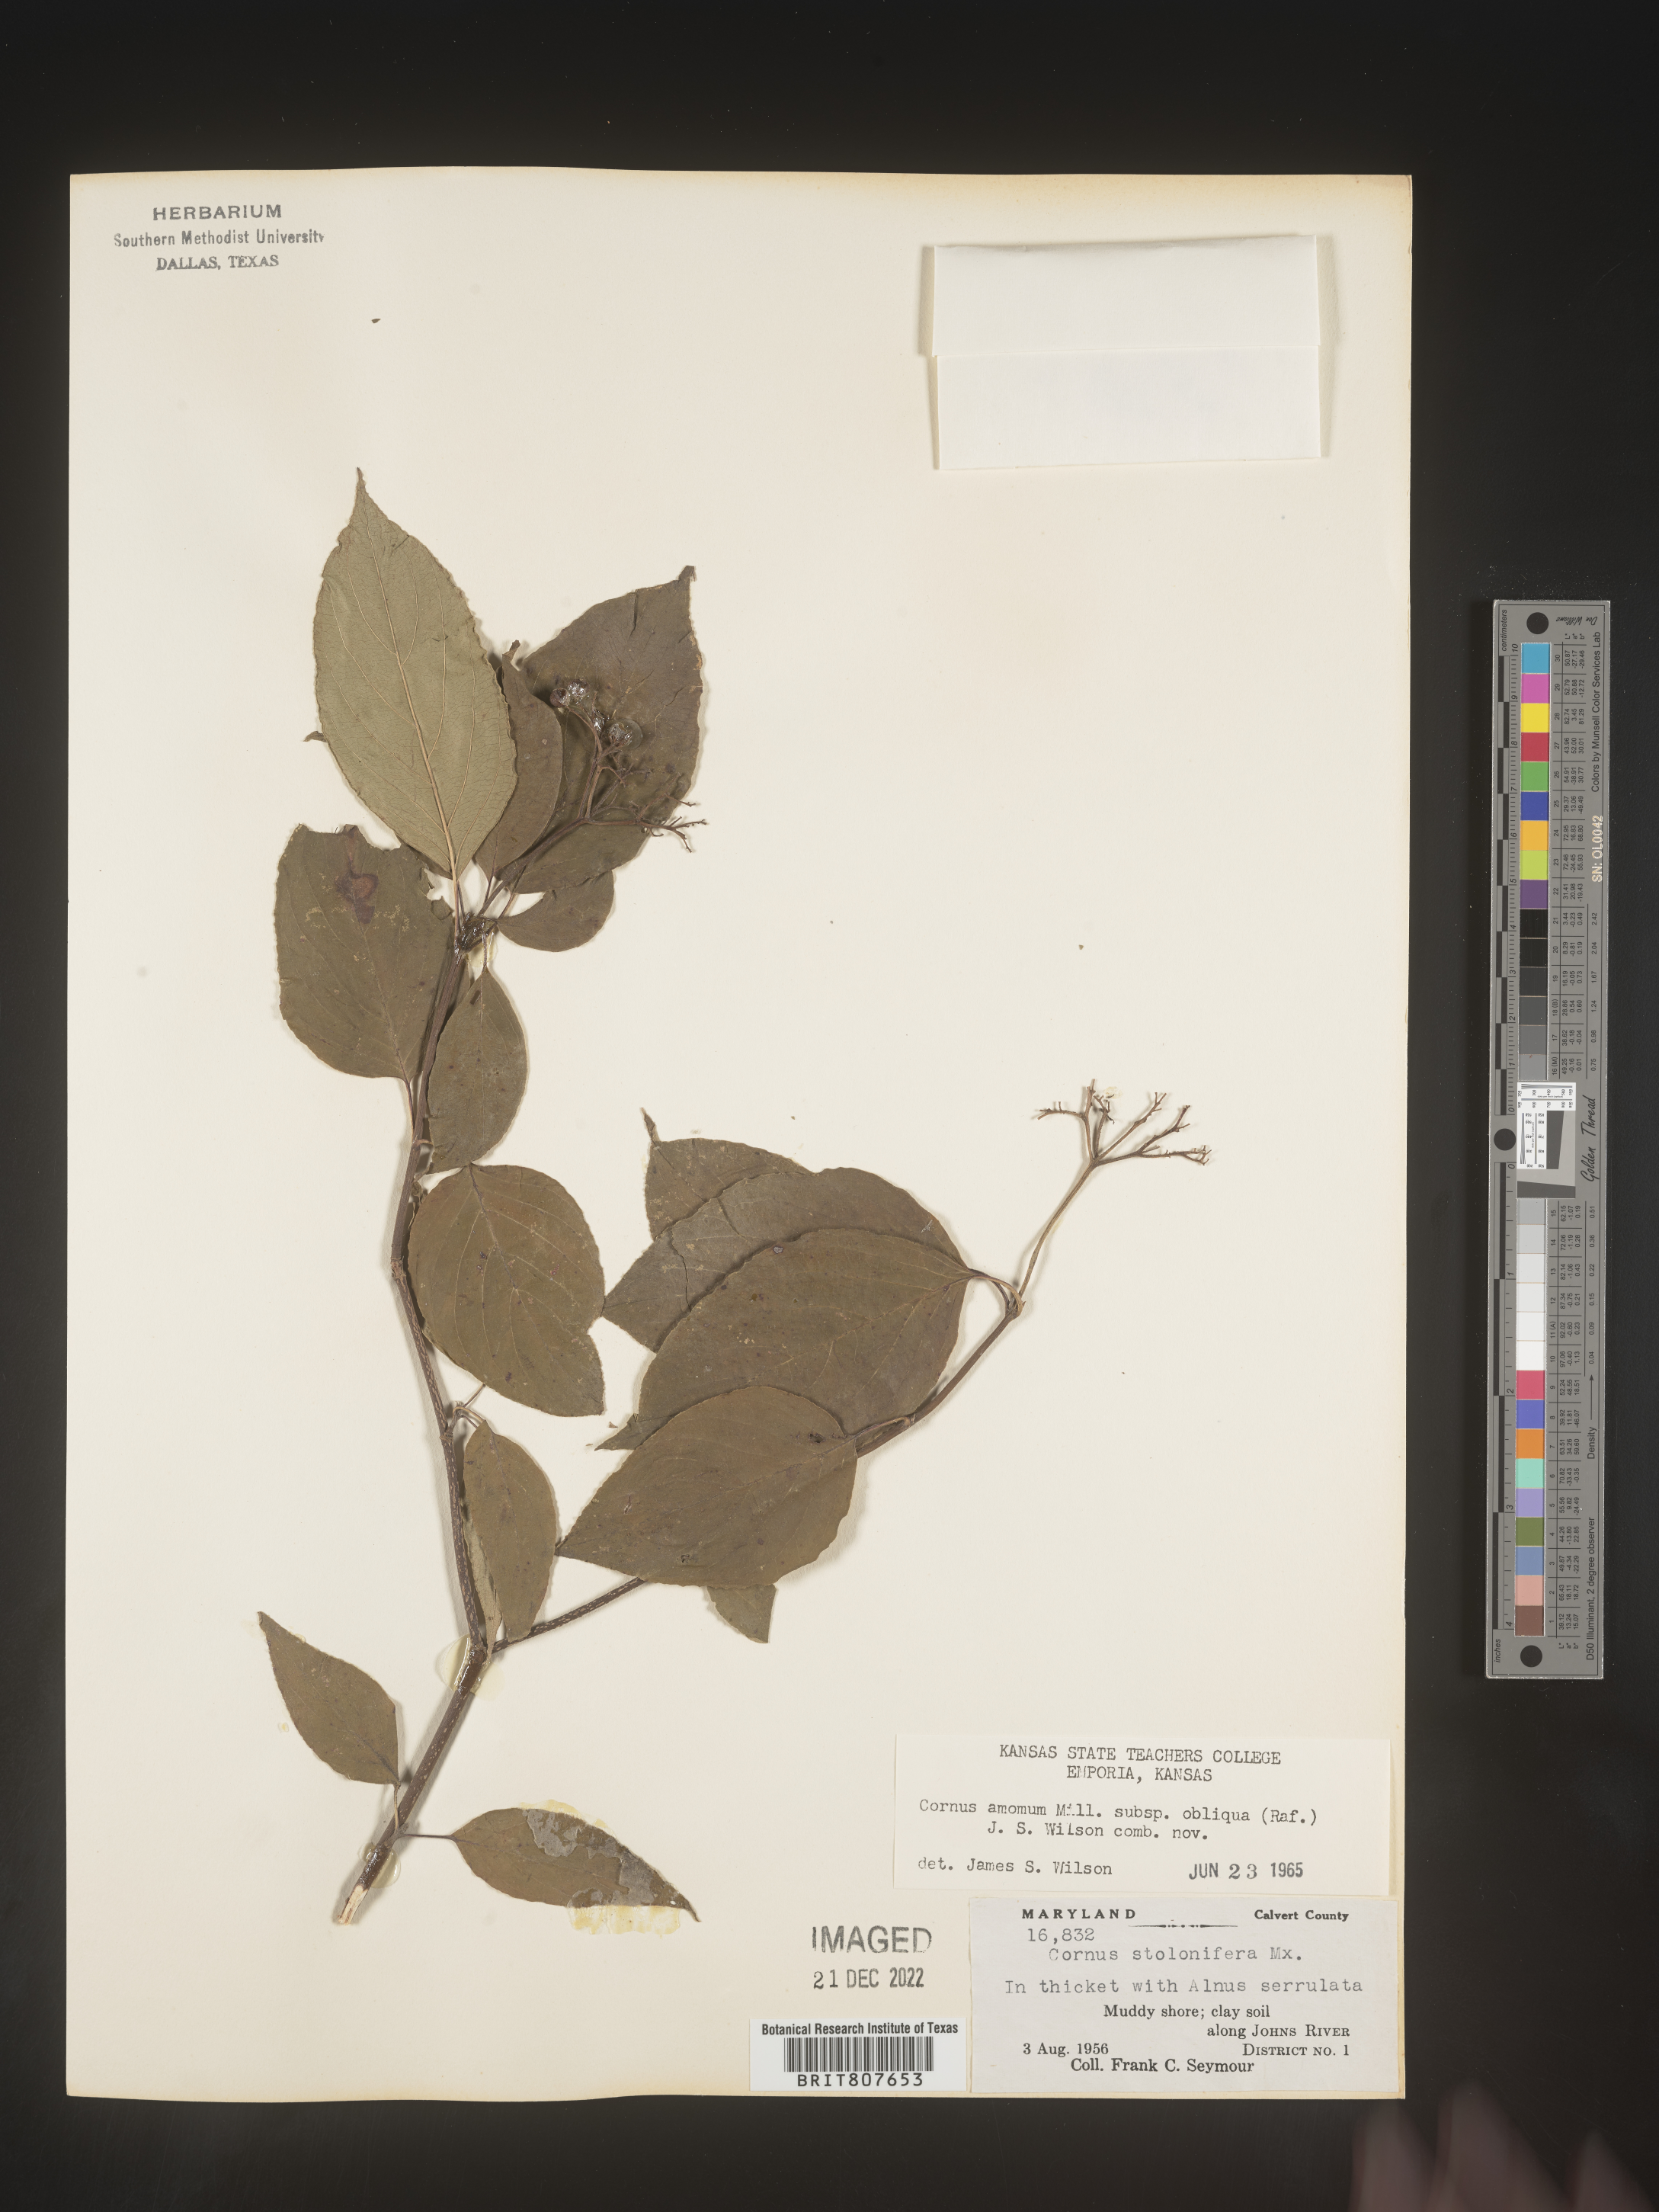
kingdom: Plantae
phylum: Tracheophyta
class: Magnoliopsida
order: Cornales
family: Cornaceae
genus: Cornus
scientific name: Cornus obliqua
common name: Pale dogwood
